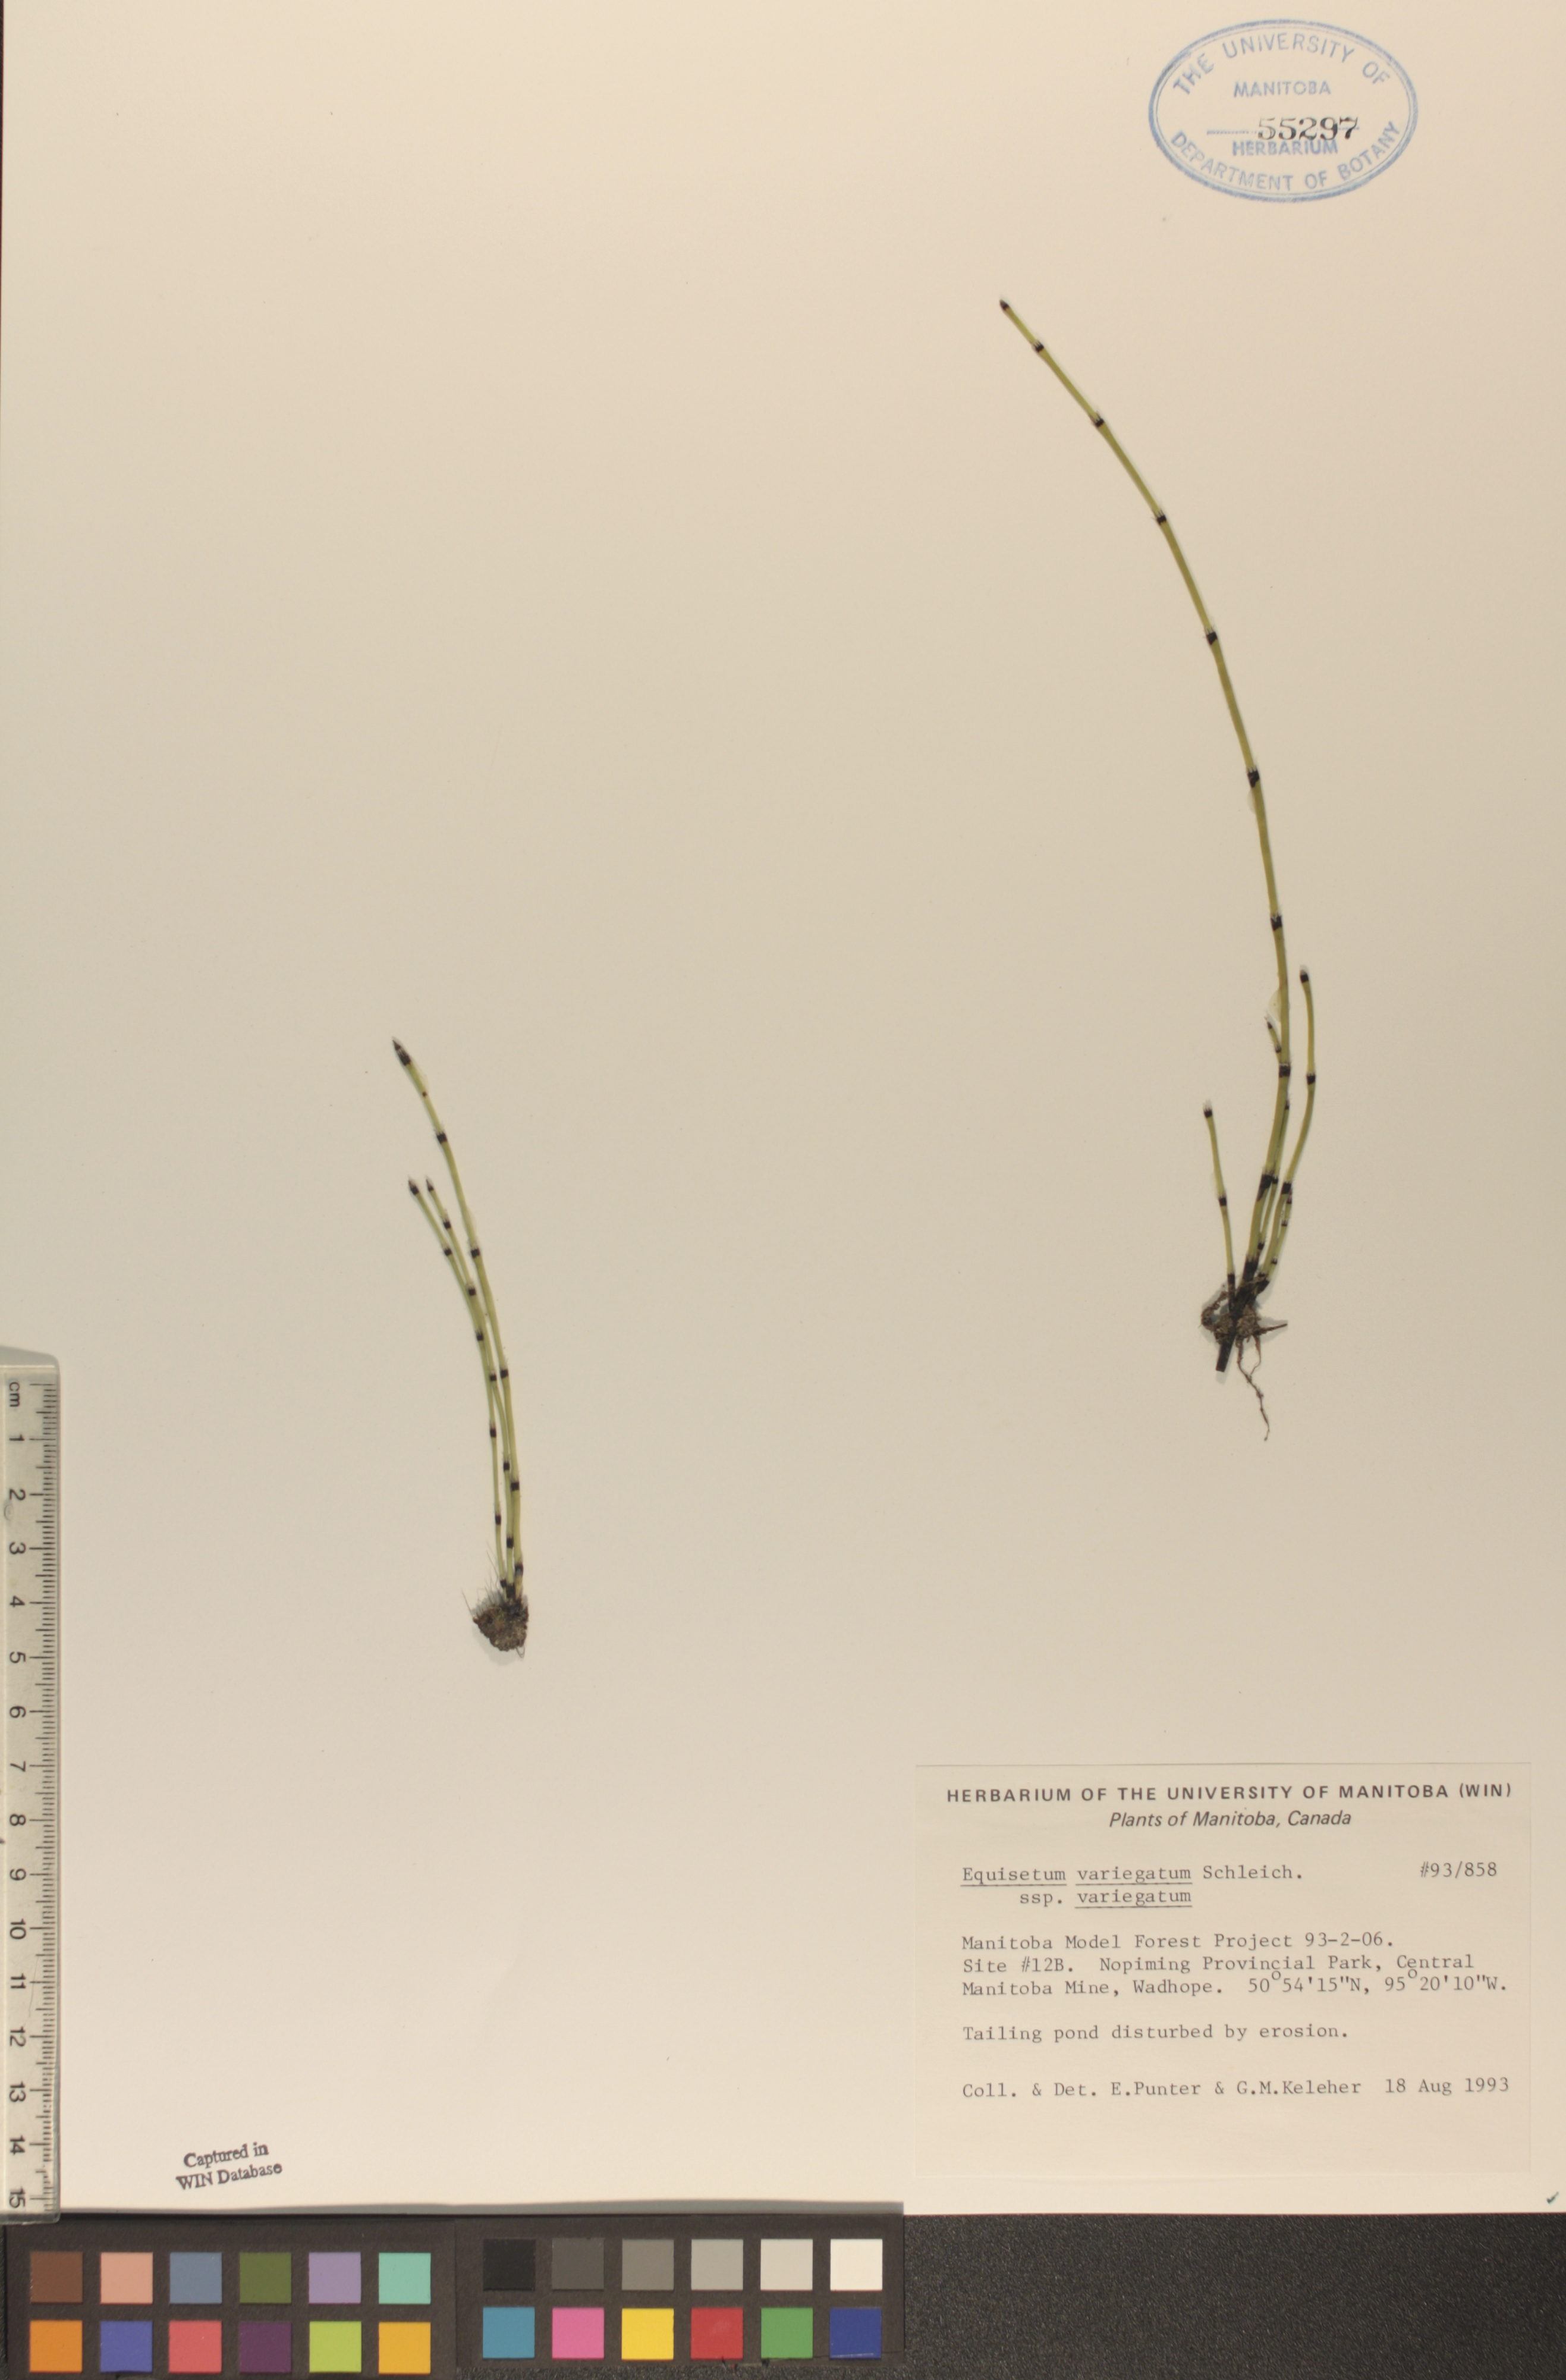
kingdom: Plantae
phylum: Tracheophyta
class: Polypodiopsida
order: Equisetales
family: Equisetaceae
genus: Equisetum
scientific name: Equisetum variegatum
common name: Variegated horsetail
